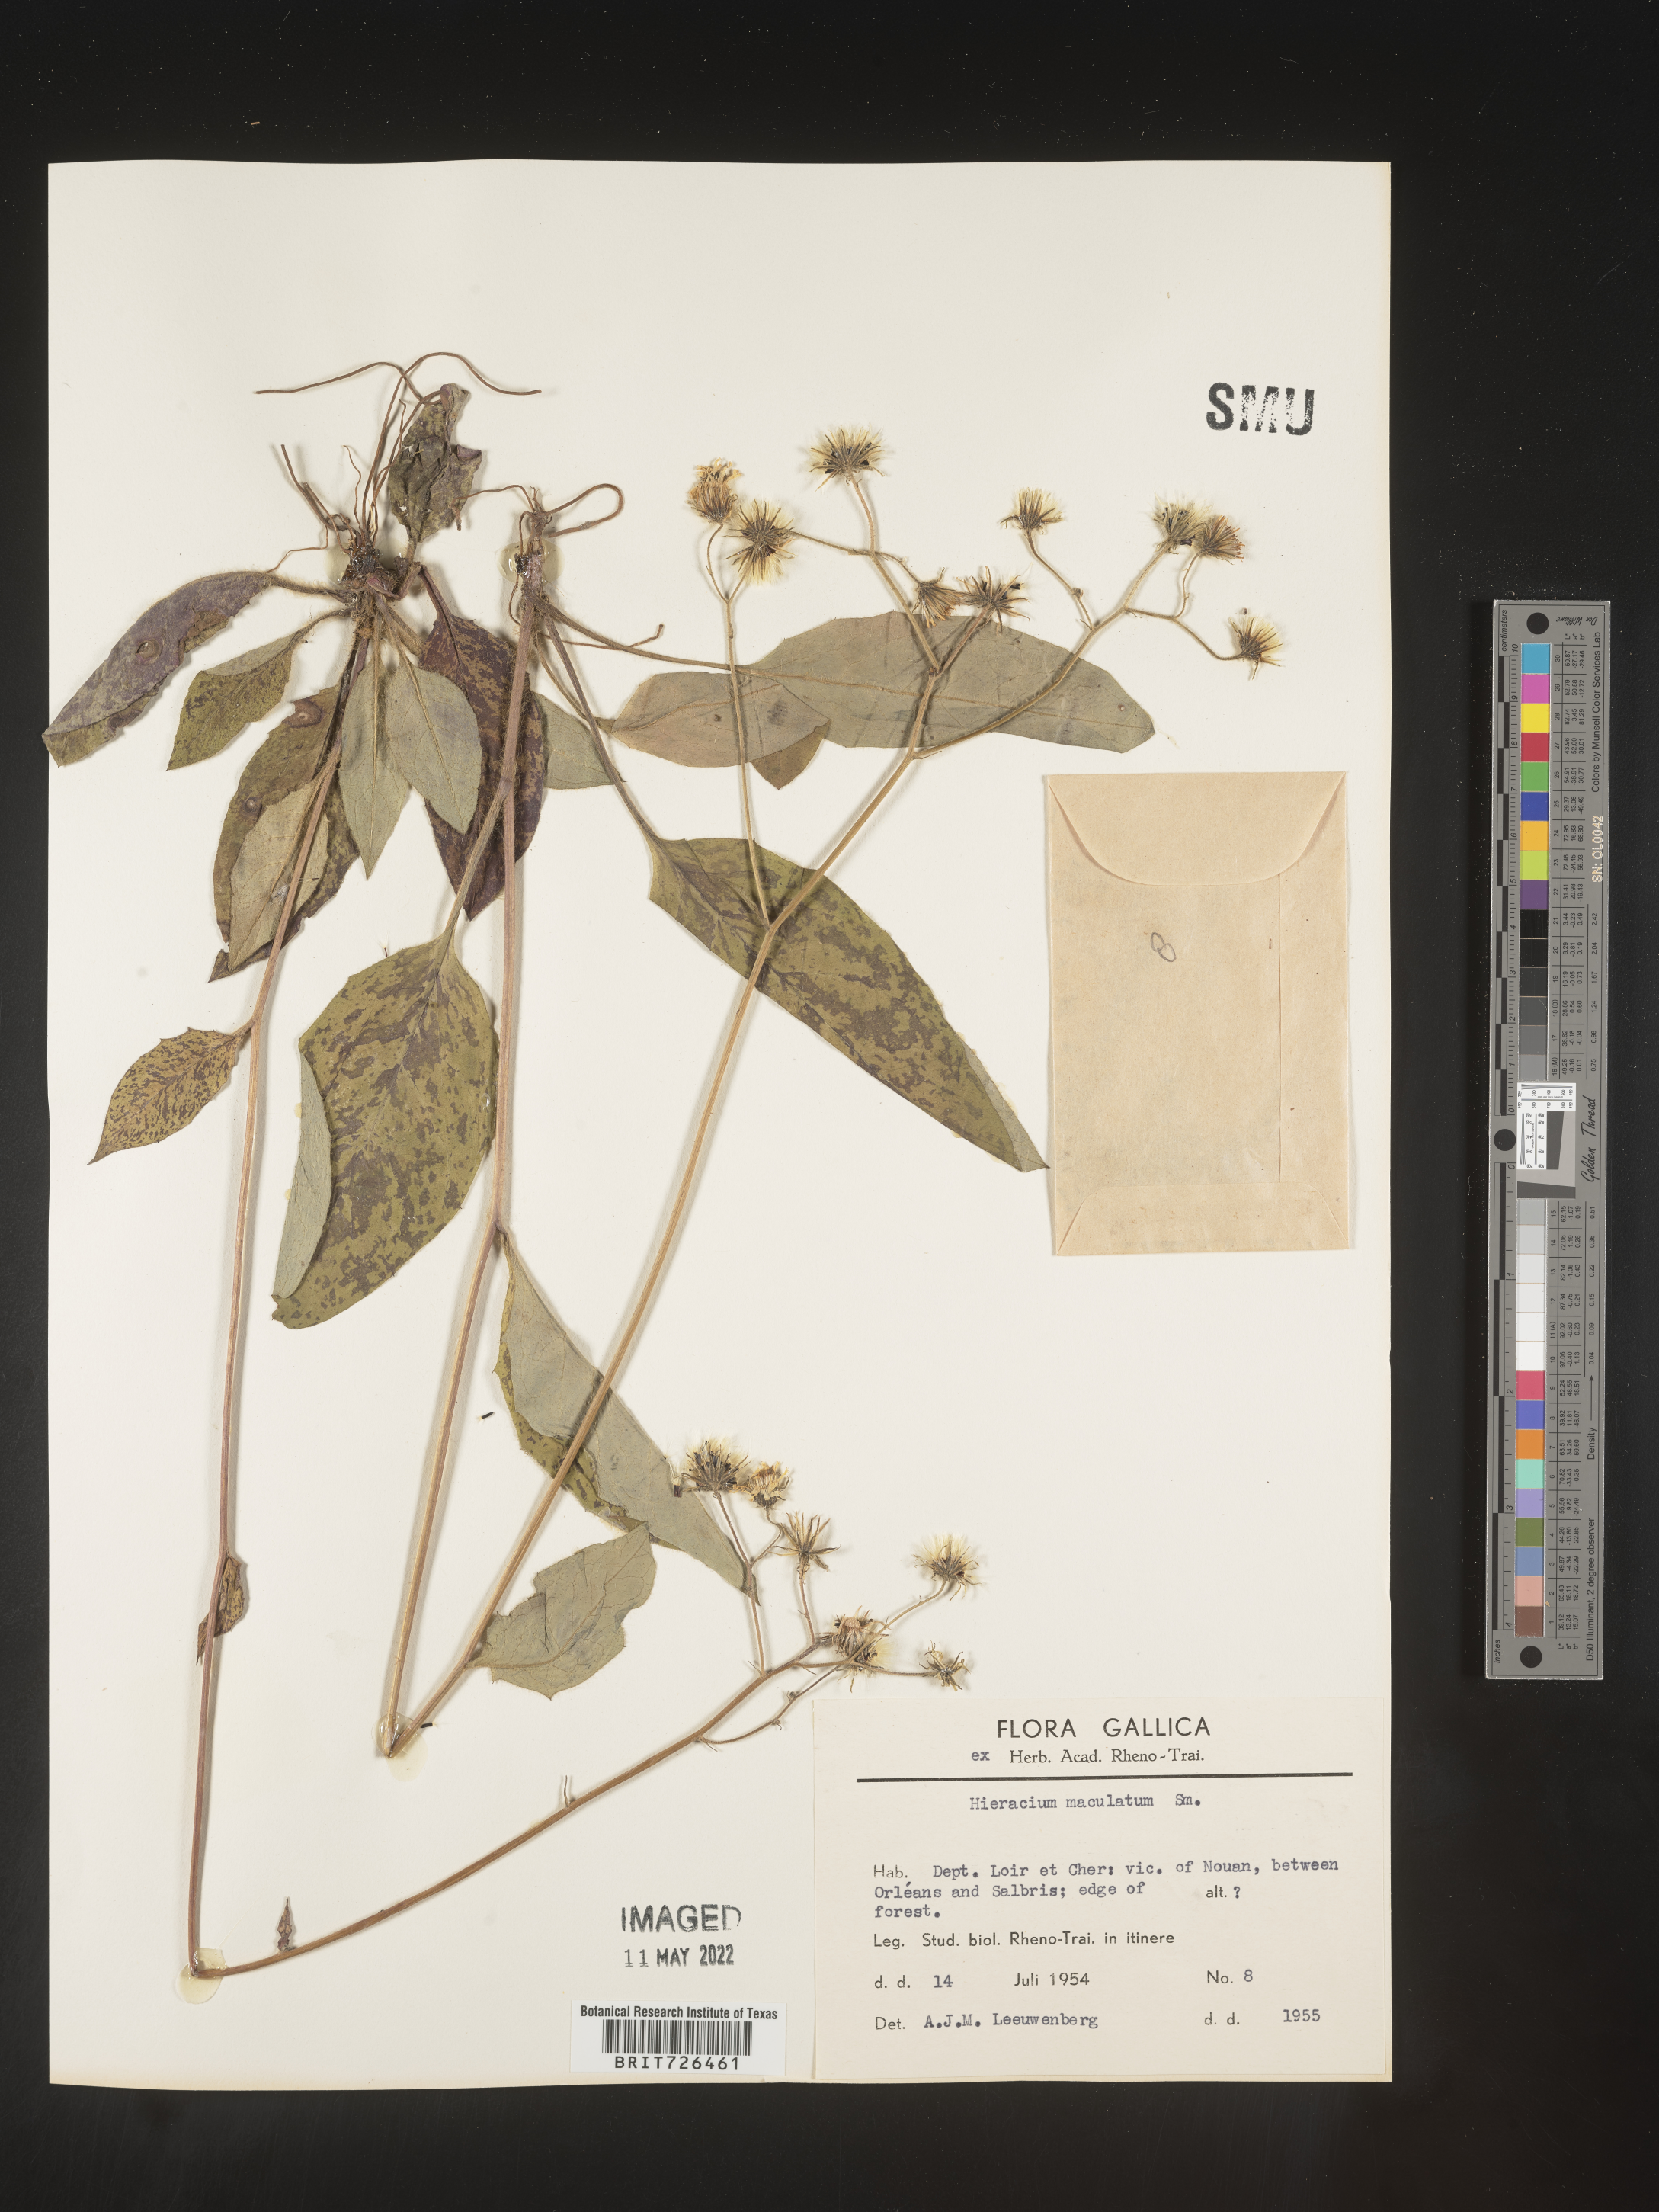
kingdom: Plantae
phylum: Tracheophyta
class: Magnoliopsida
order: Asterales
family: Asteraceae
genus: Hieracium
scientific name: Hieracium
